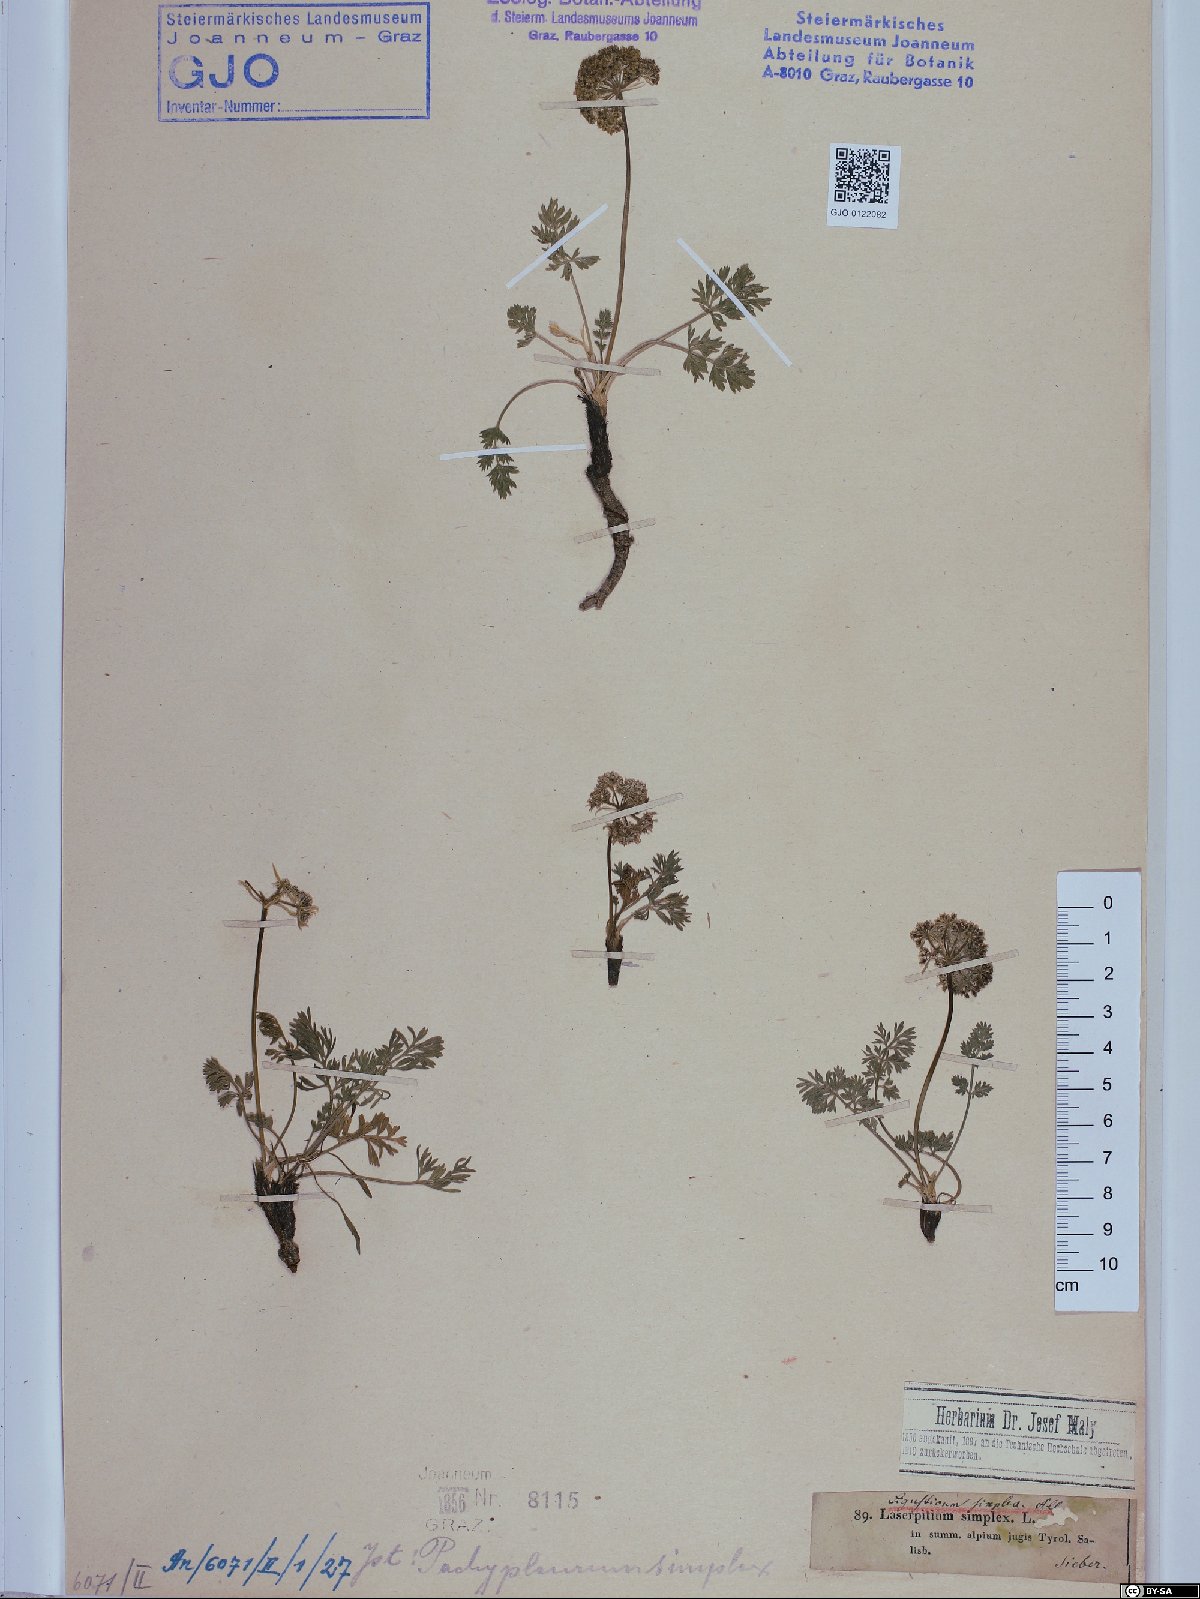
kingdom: Plantae
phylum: Tracheophyta
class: Magnoliopsida
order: Apiales
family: Apiaceae
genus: Pachypleurum
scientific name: Pachypleurum mutellinoides
